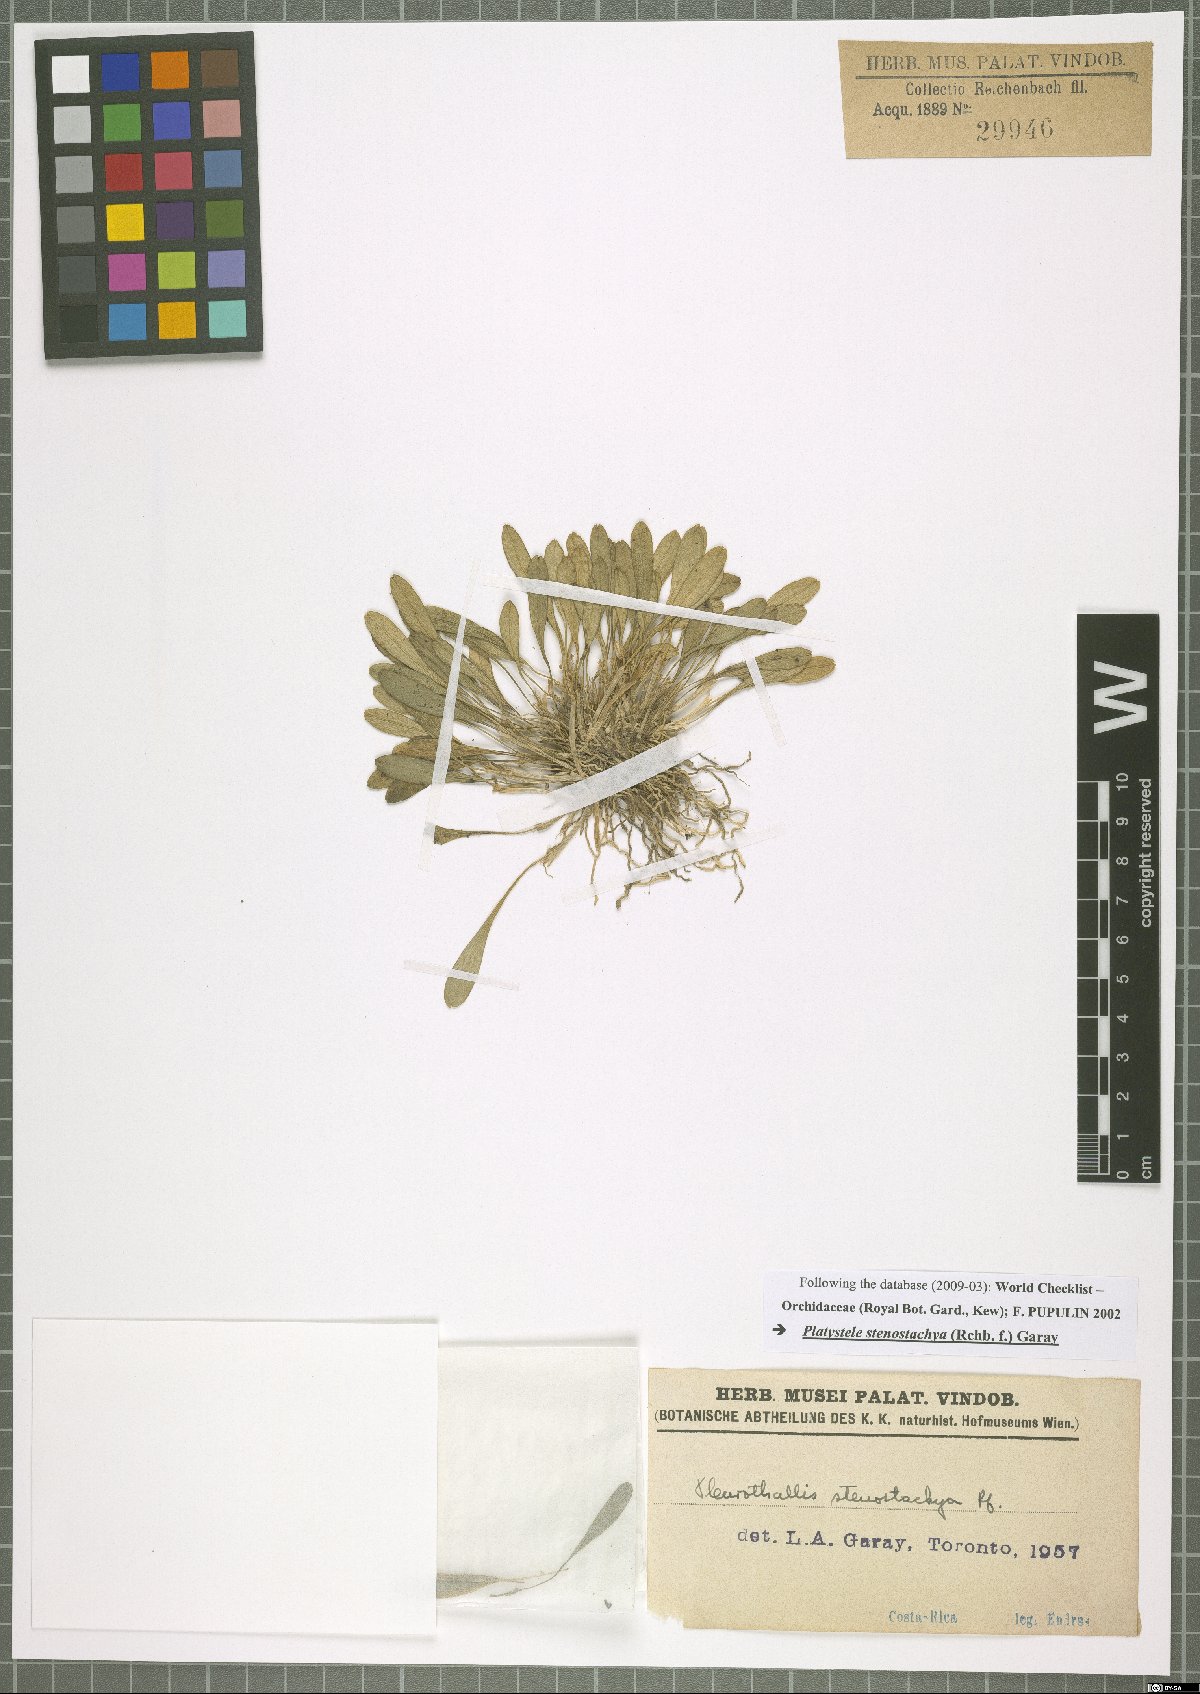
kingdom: Plantae
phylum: Tracheophyta
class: Liliopsida
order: Asparagales
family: Orchidaceae
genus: Platystele
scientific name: Platystele stenostachya
